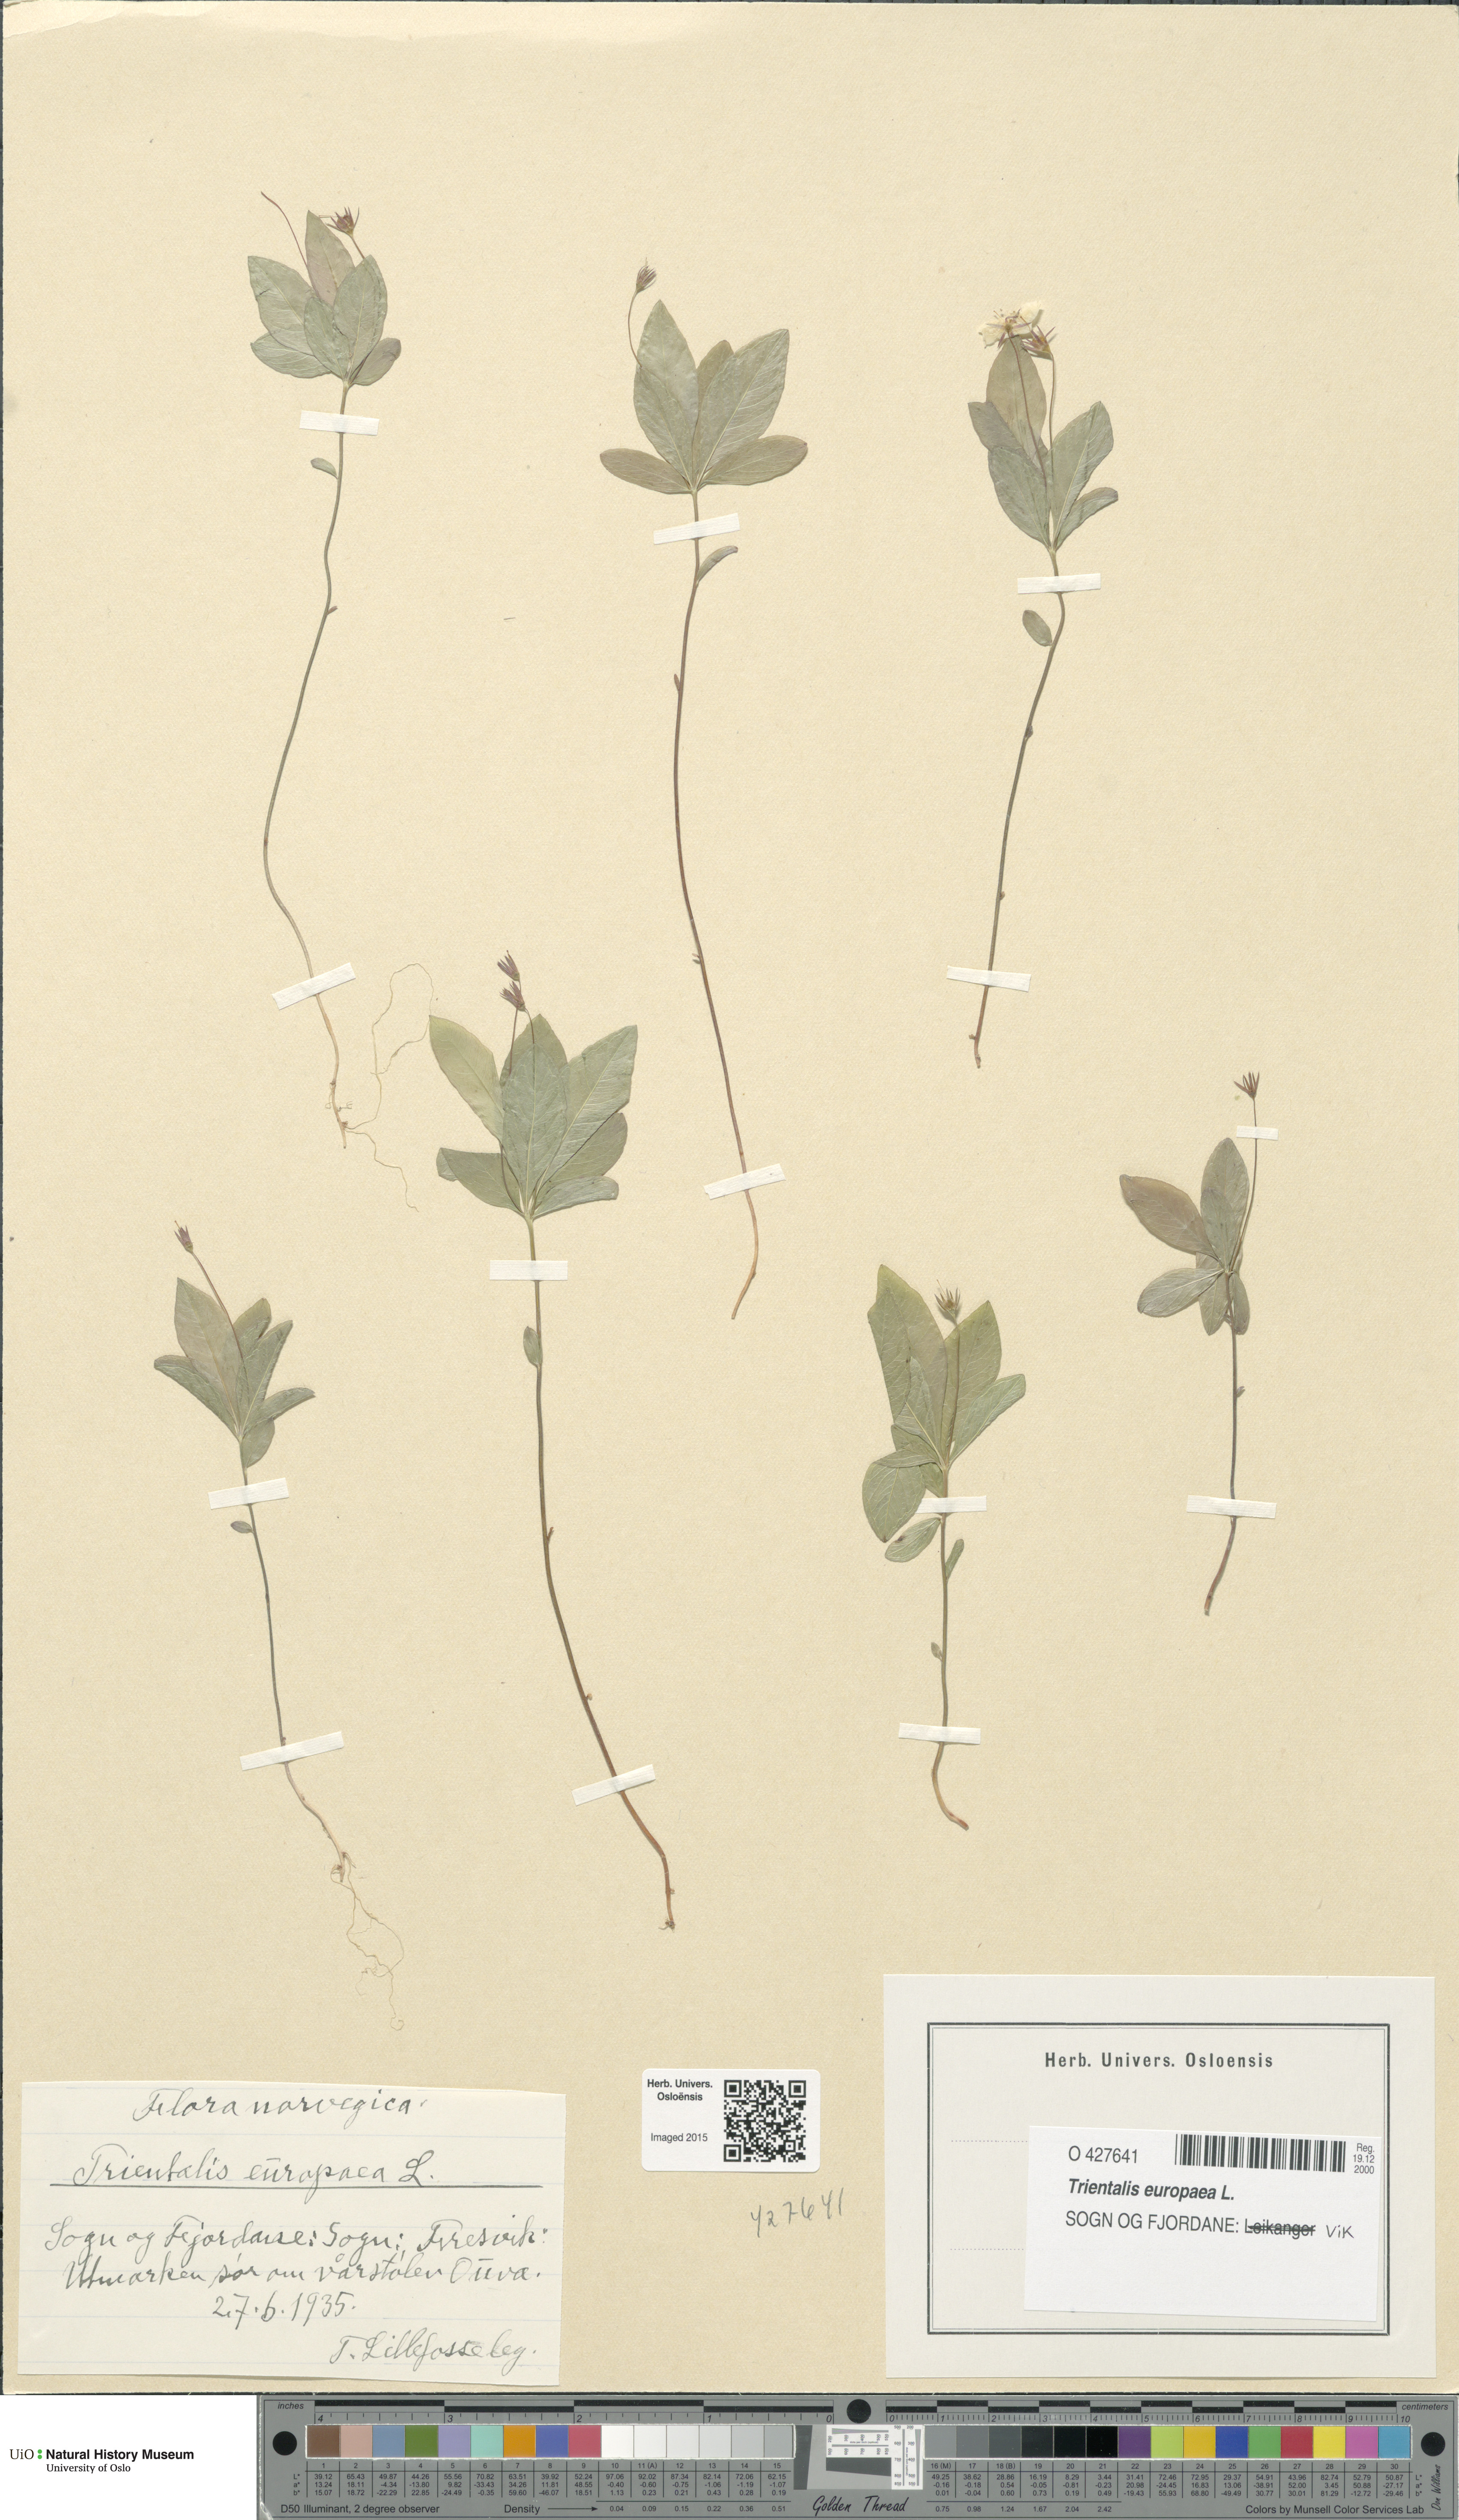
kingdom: Plantae
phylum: Tracheophyta
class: Magnoliopsida
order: Ericales
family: Primulaceae
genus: Lysimachia
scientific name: Lysimachia europaea
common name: Arctic starflower
